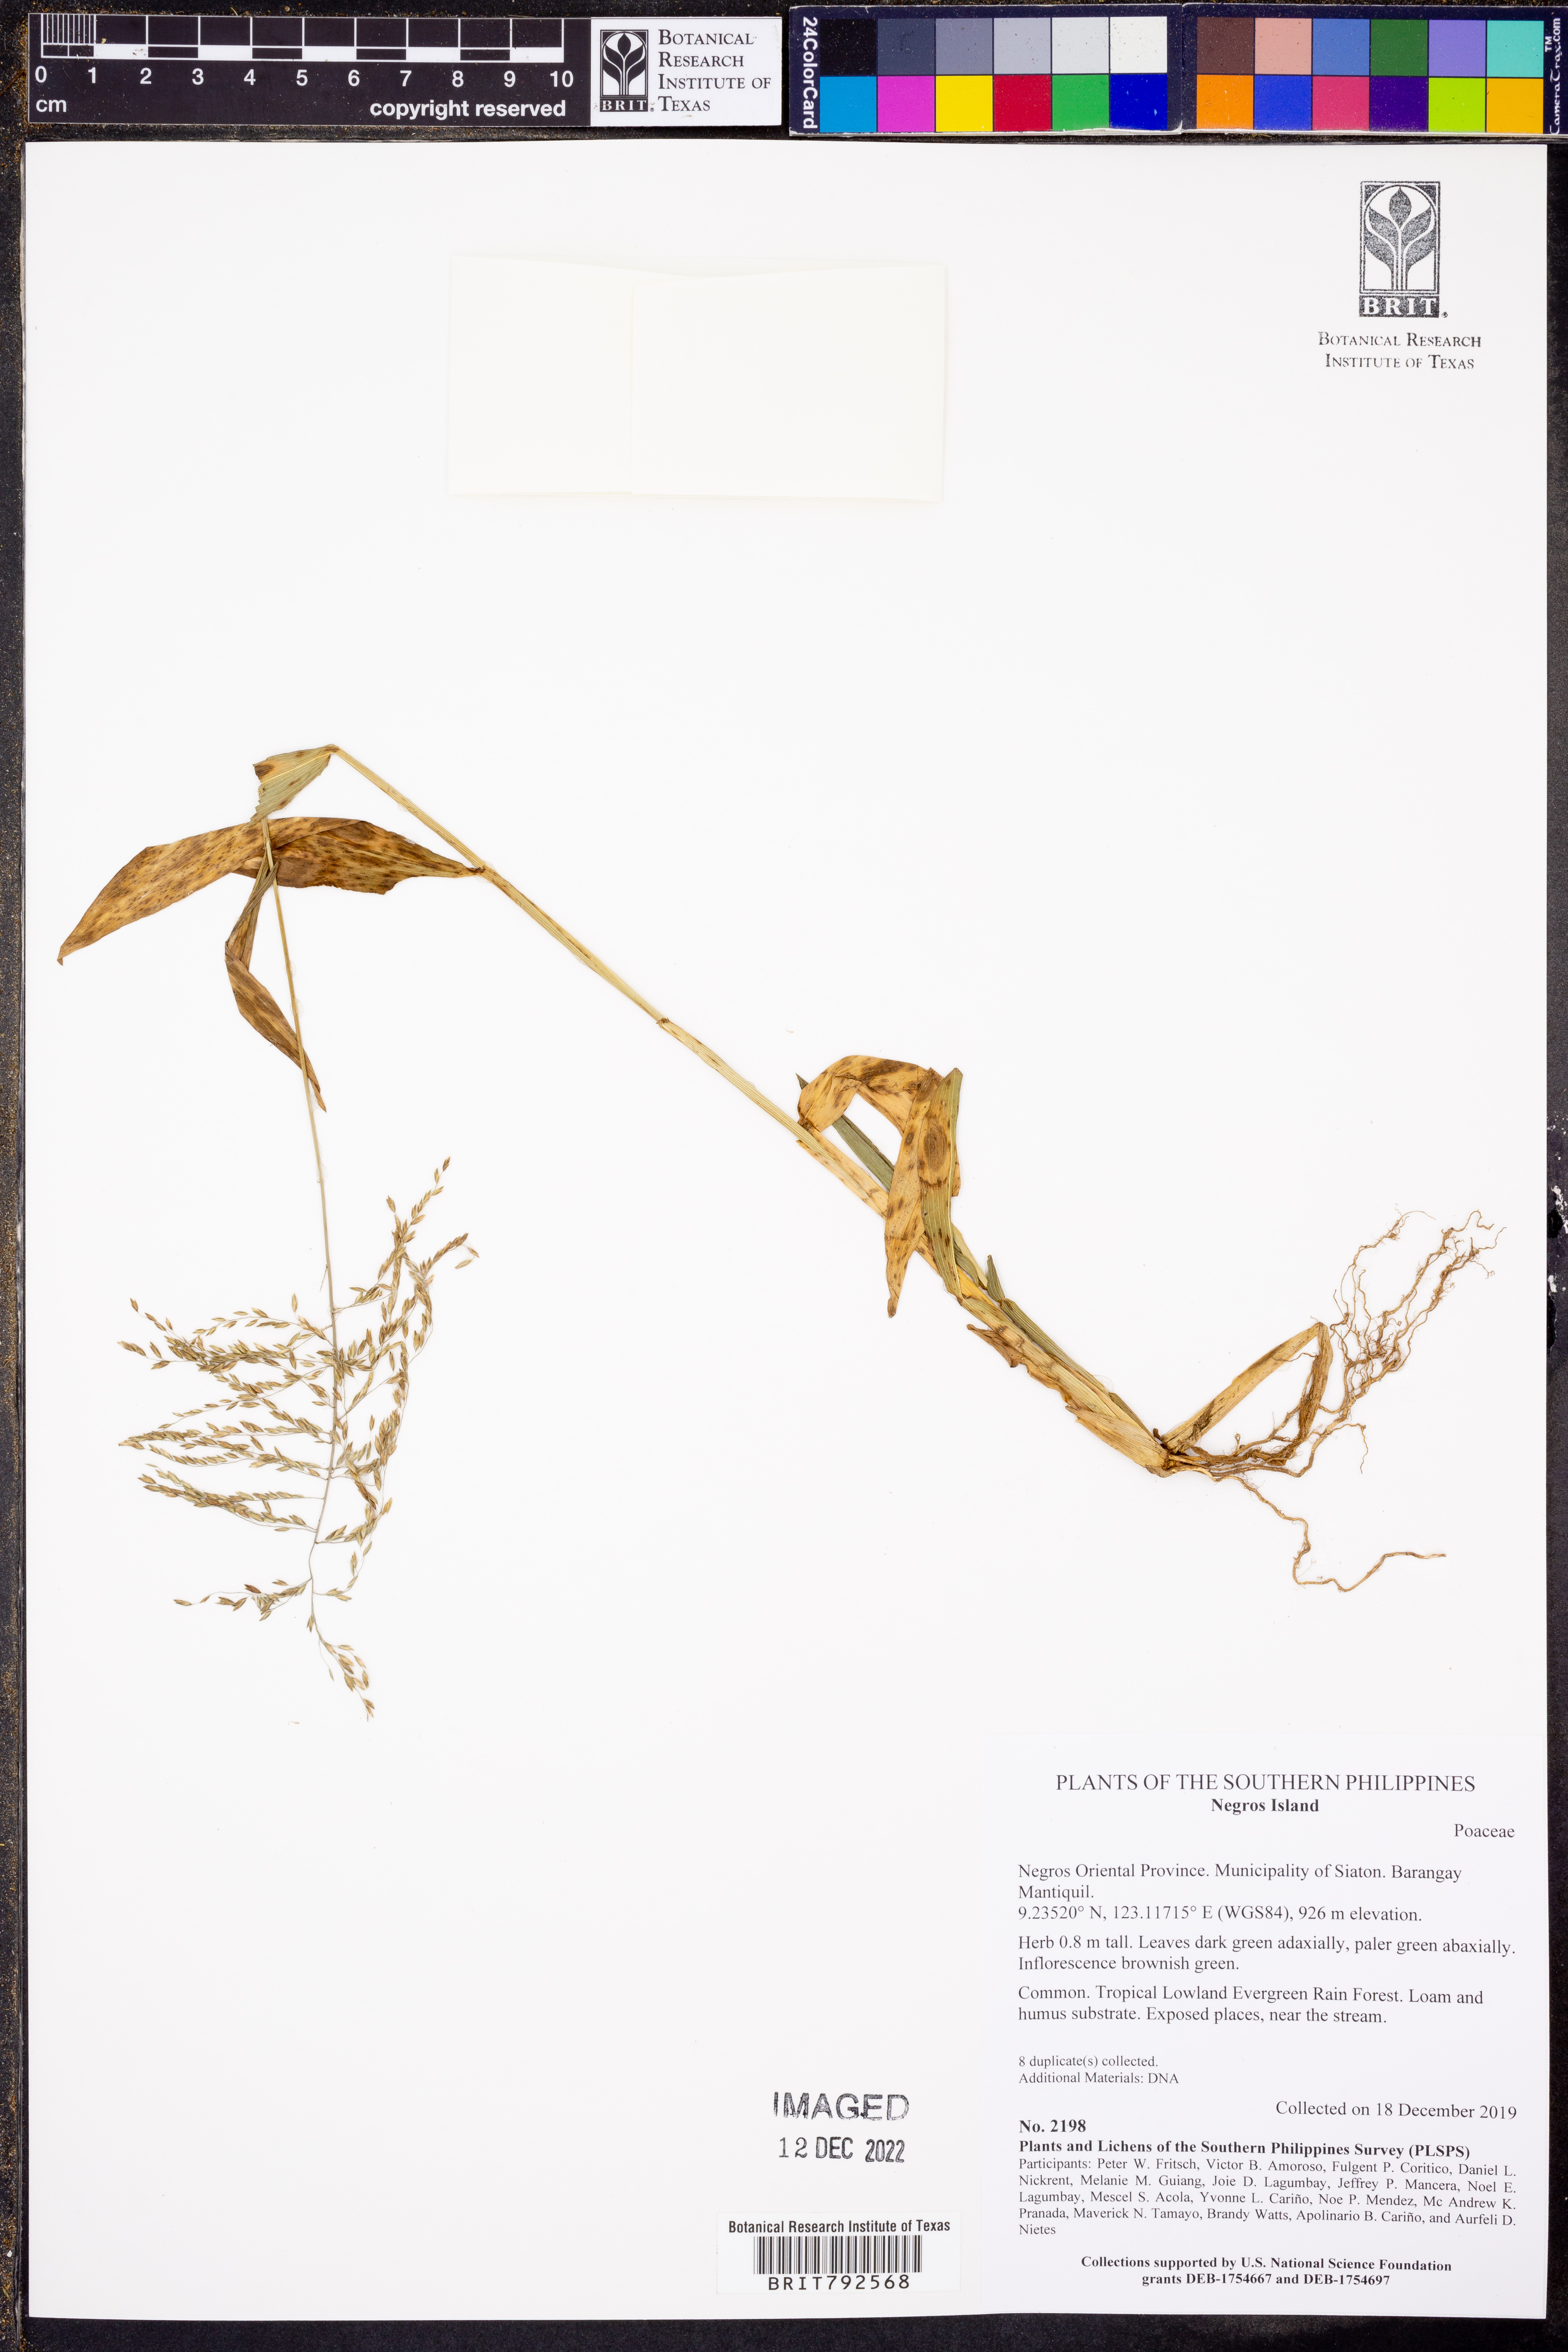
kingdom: Plantae
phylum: Tracheophyta
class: Liliopsida
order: Poales
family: Poaceae
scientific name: Poaceae
